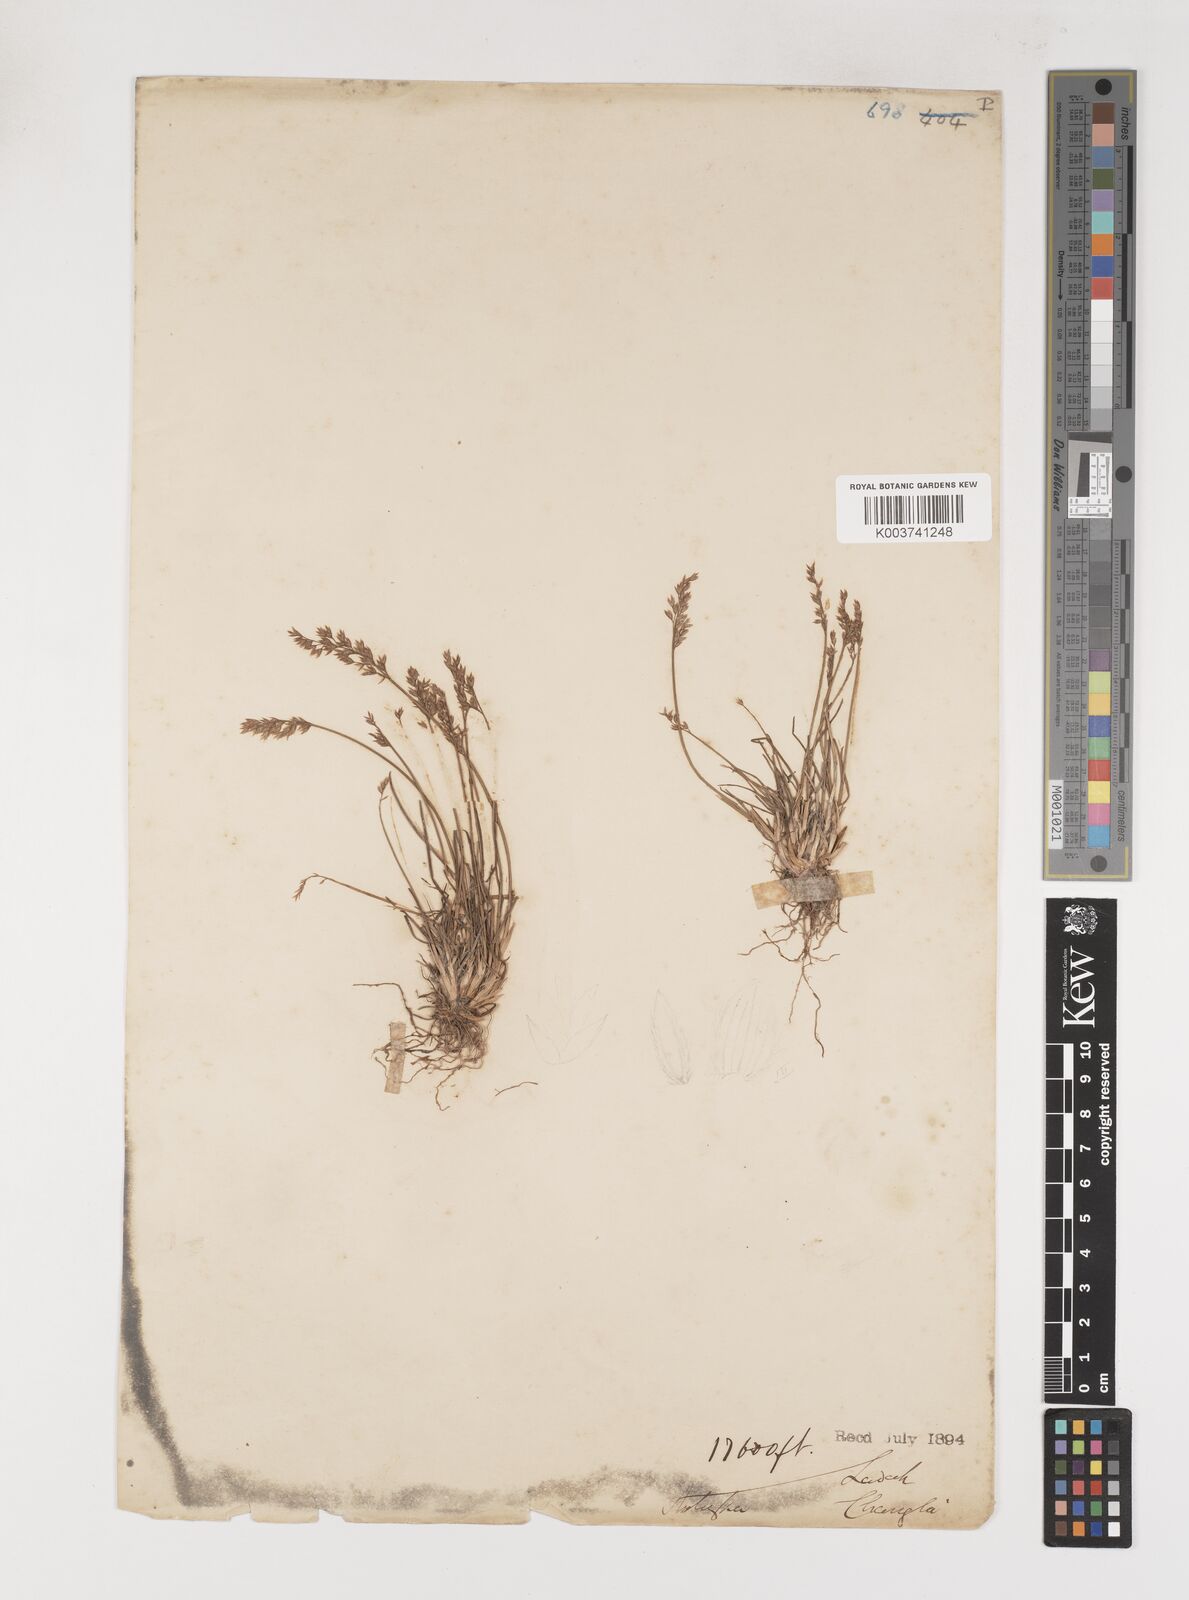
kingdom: Plantae
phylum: Tracheophyta
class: Liliopsida
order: Poales
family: Poaceae
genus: Poa
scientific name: Poa
